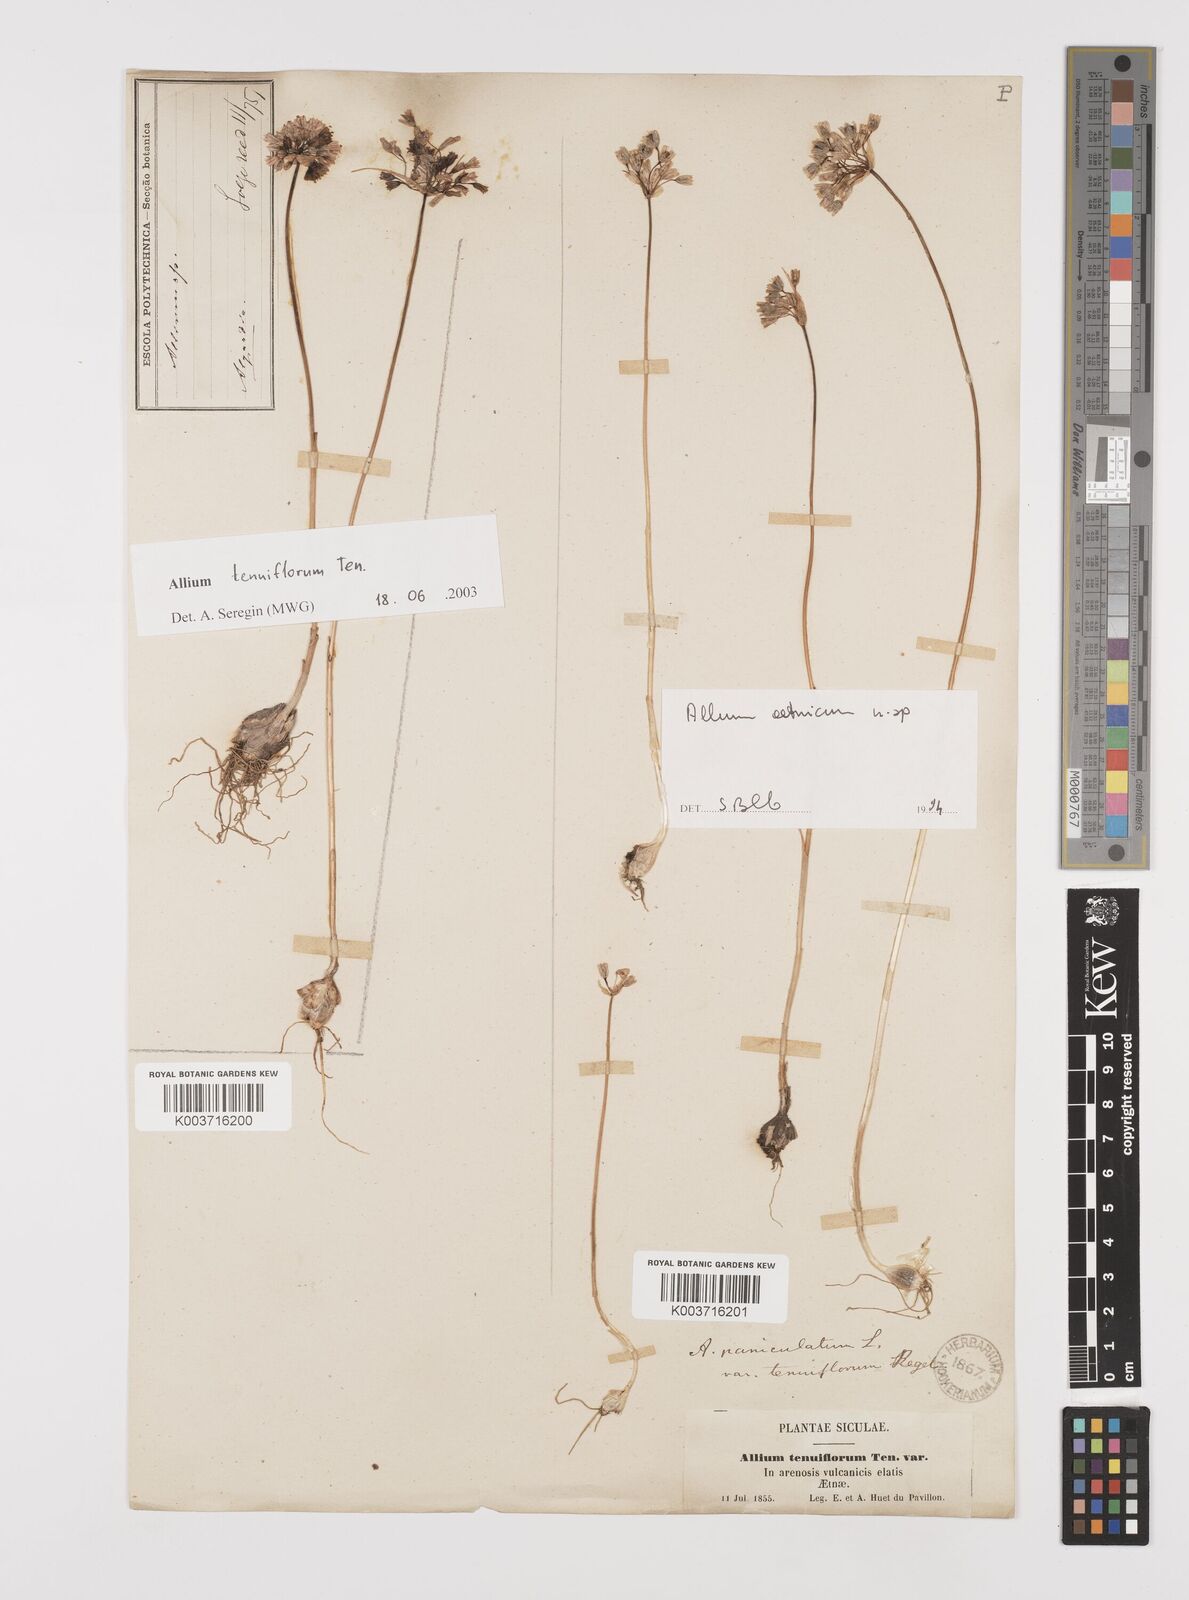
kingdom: Plantae
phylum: Tracheophyta
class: Liliopsida
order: Asparagales
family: Amaryllidaceae
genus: Allium
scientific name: Allium tenuiflorum
